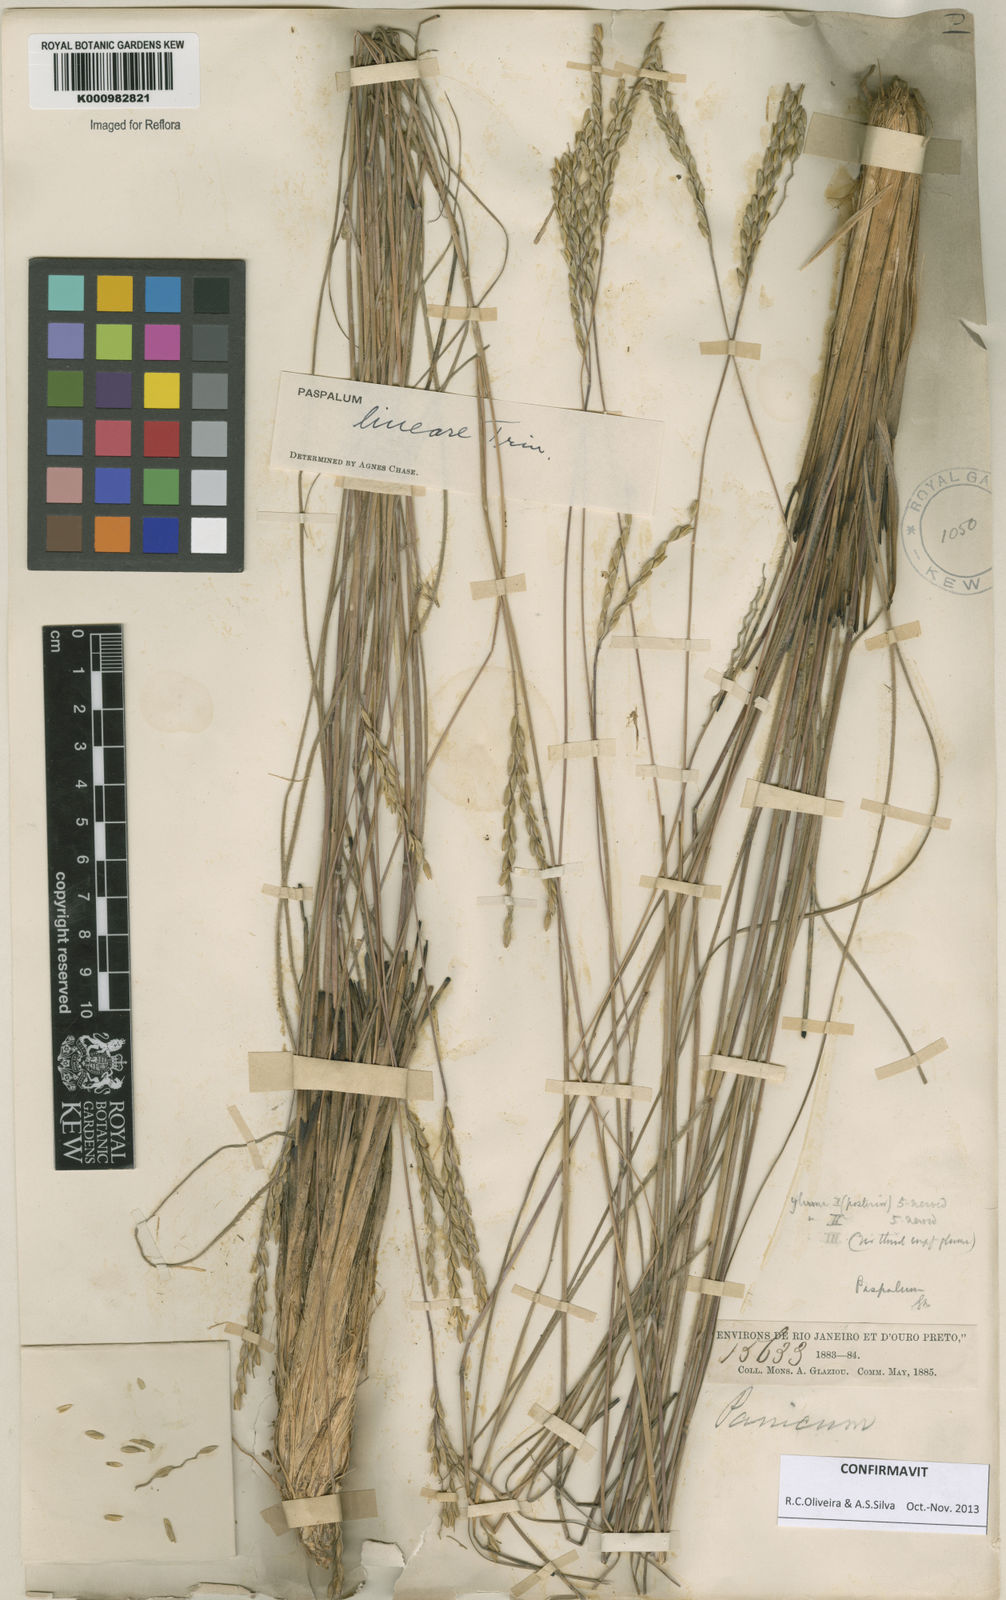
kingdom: Plantae
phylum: Tracheophyta
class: Liliopsida
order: Poales
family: Poaceae
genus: Paspalum
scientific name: Paspalum lineare
